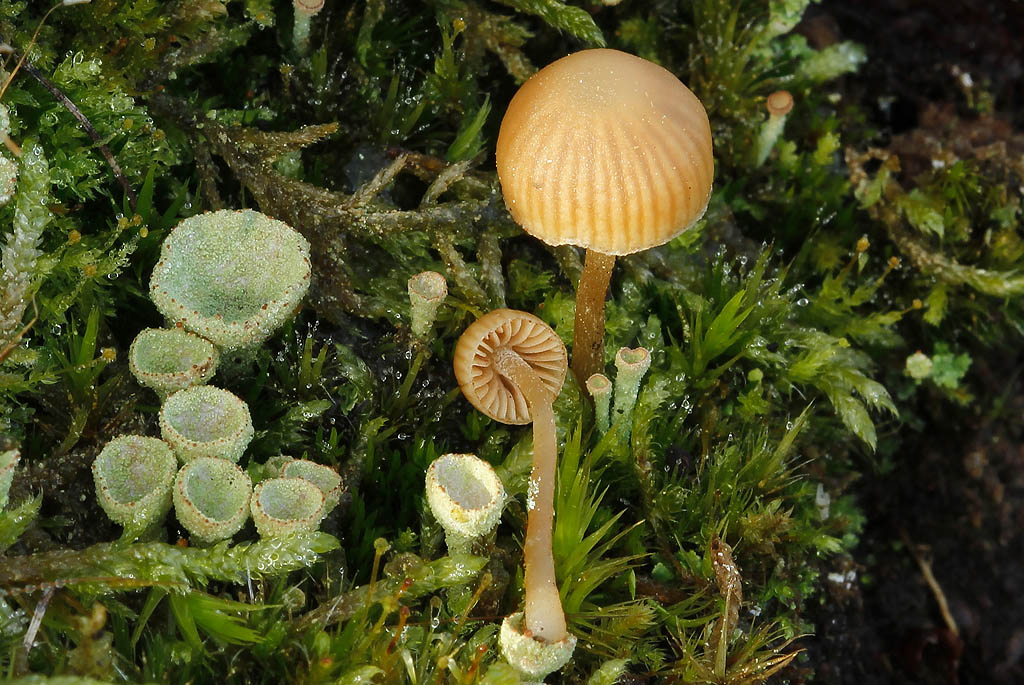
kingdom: Fungi
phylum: Basidiomycota
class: Agaricomycetes
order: Agaricales
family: Hymenogastraceae
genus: Galerina
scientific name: Galerina mniophila
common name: olivengul hjelmhat
